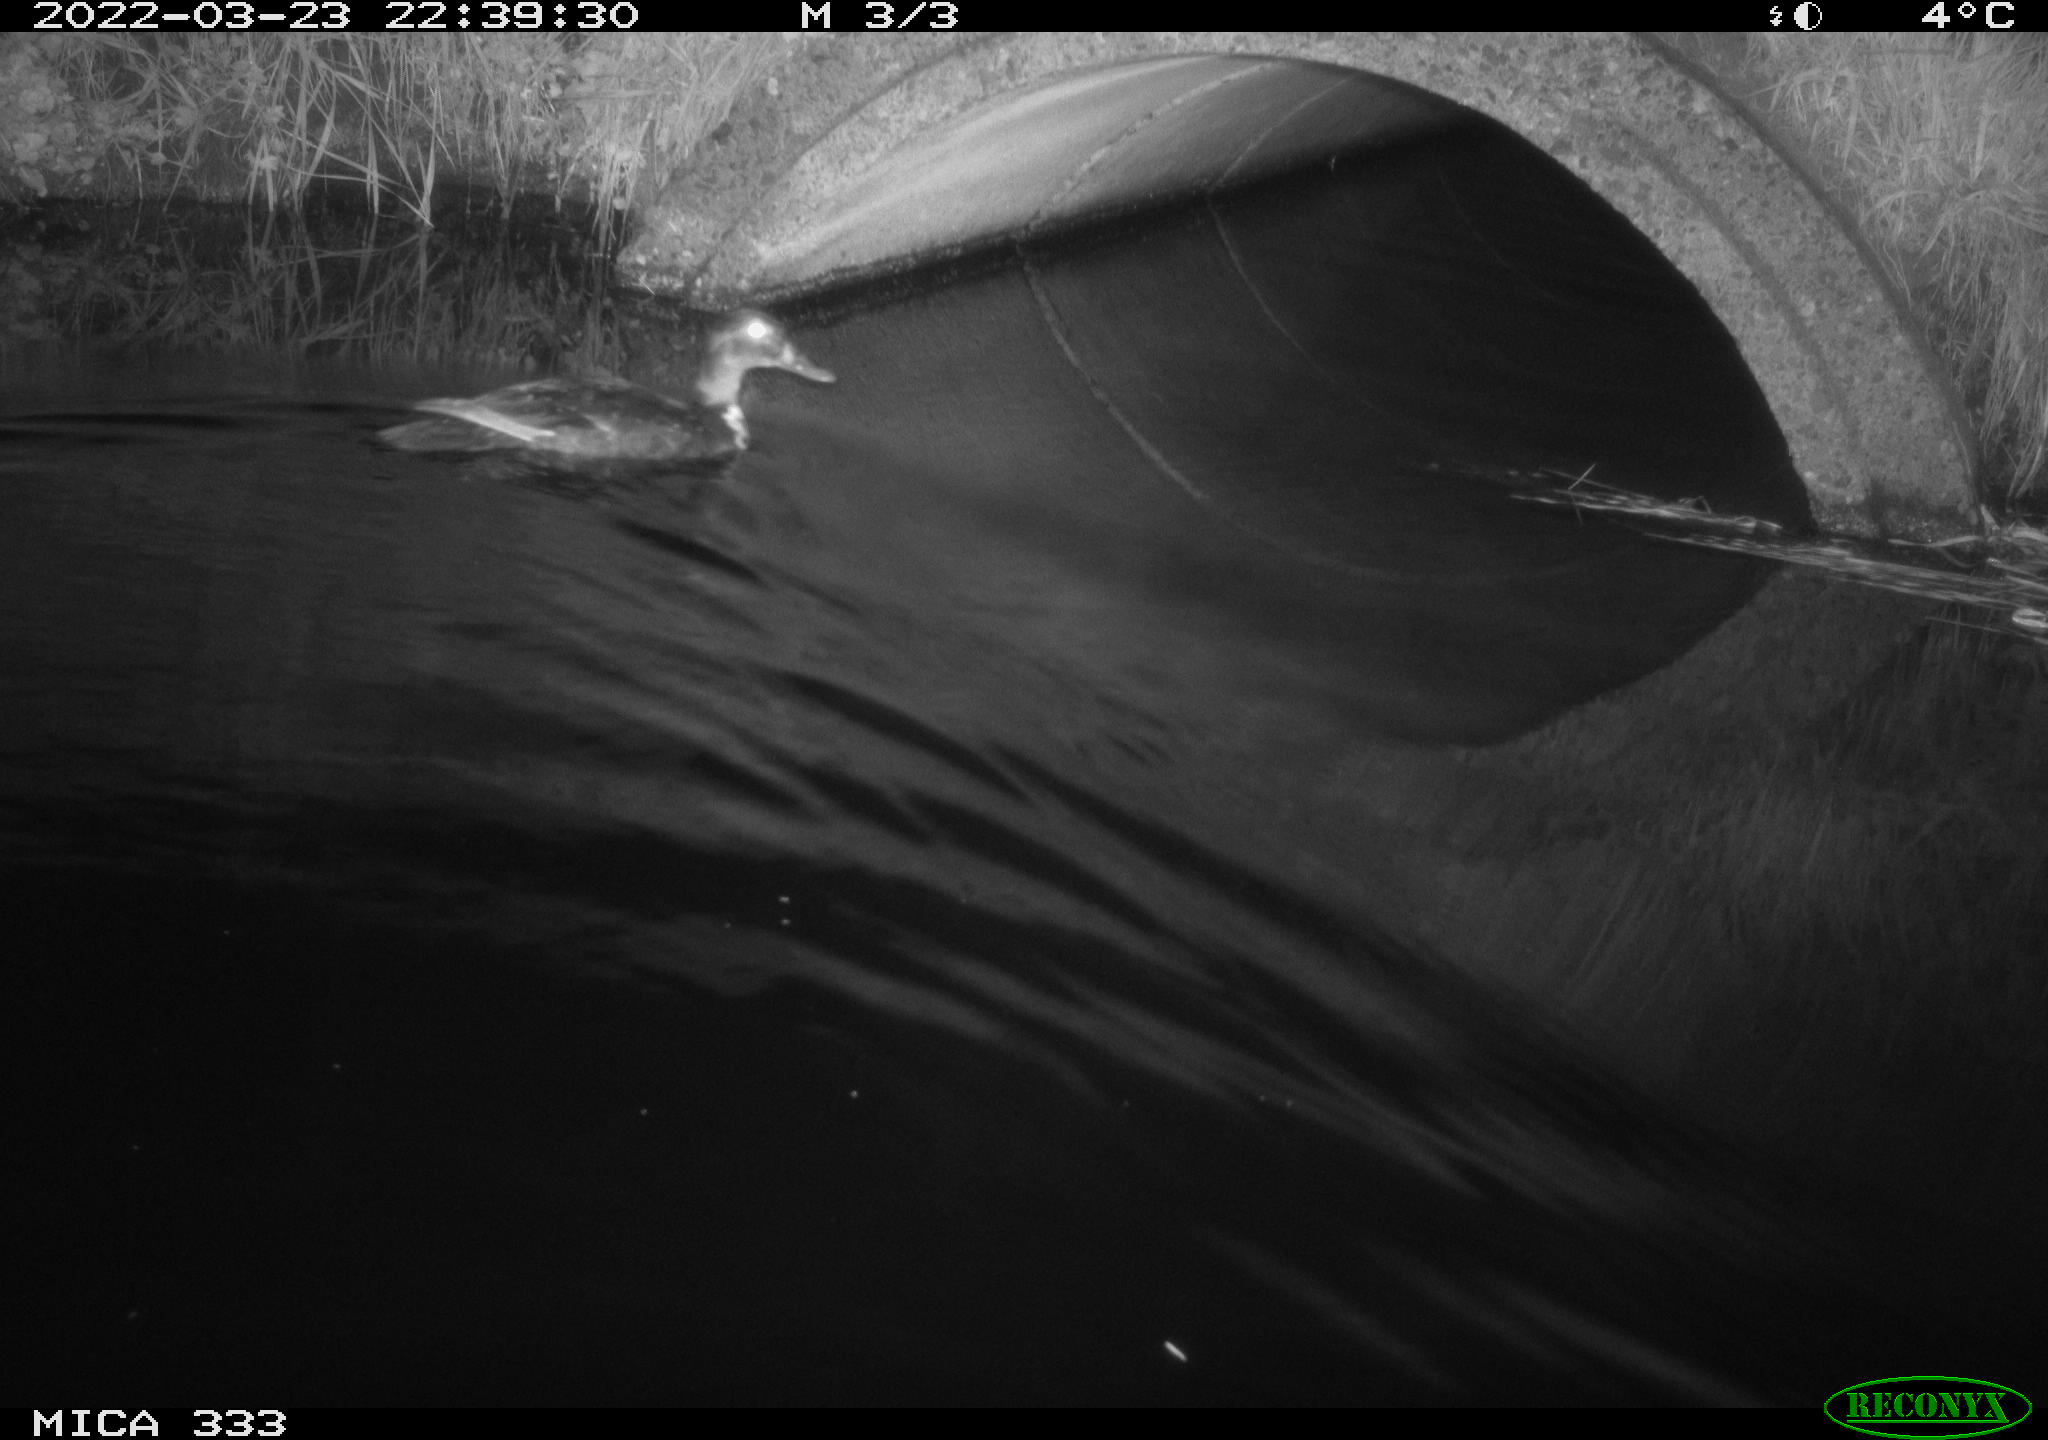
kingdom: Animalia
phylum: Chordata
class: Aves
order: Anseriformes
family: Anatidae
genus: Anas
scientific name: Anas platyrhynchos
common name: Mallard
